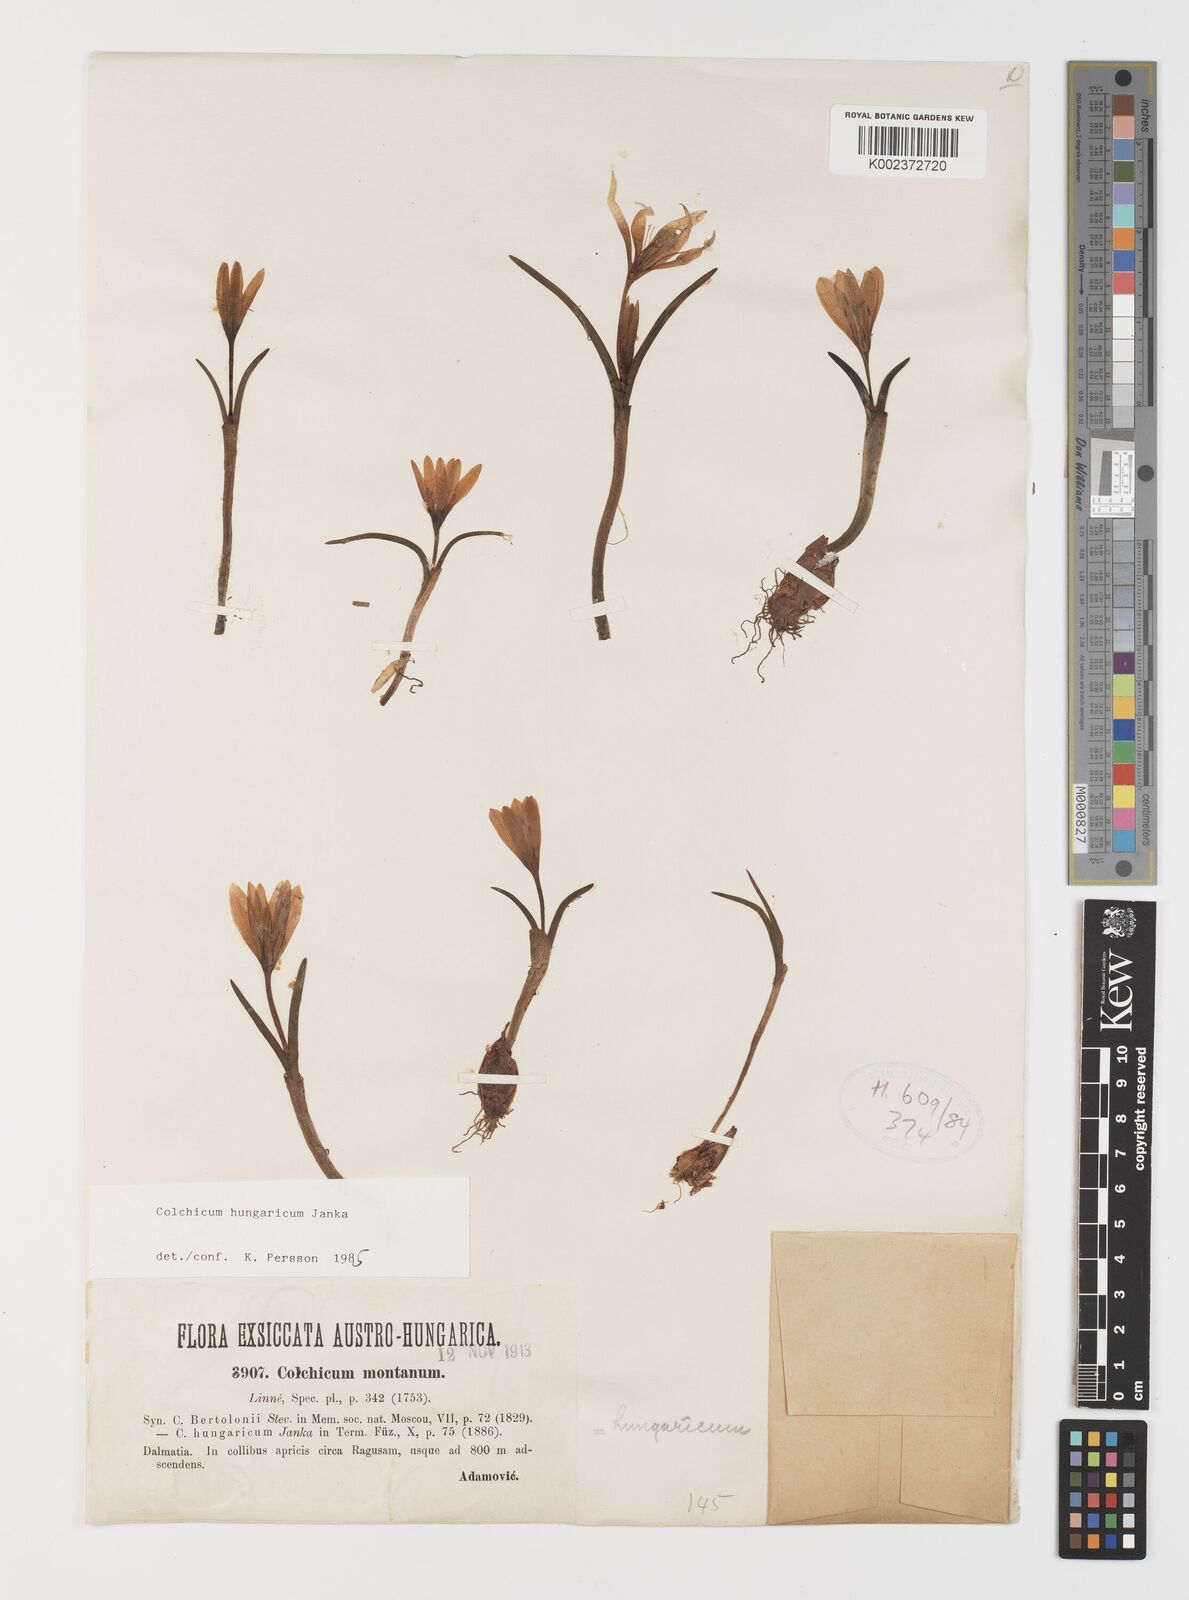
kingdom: Plantae
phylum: Tracheophyta
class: Liliopsida
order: Liliales
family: Colchicaceae
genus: Colchicum
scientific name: Colchicum hungaricum
